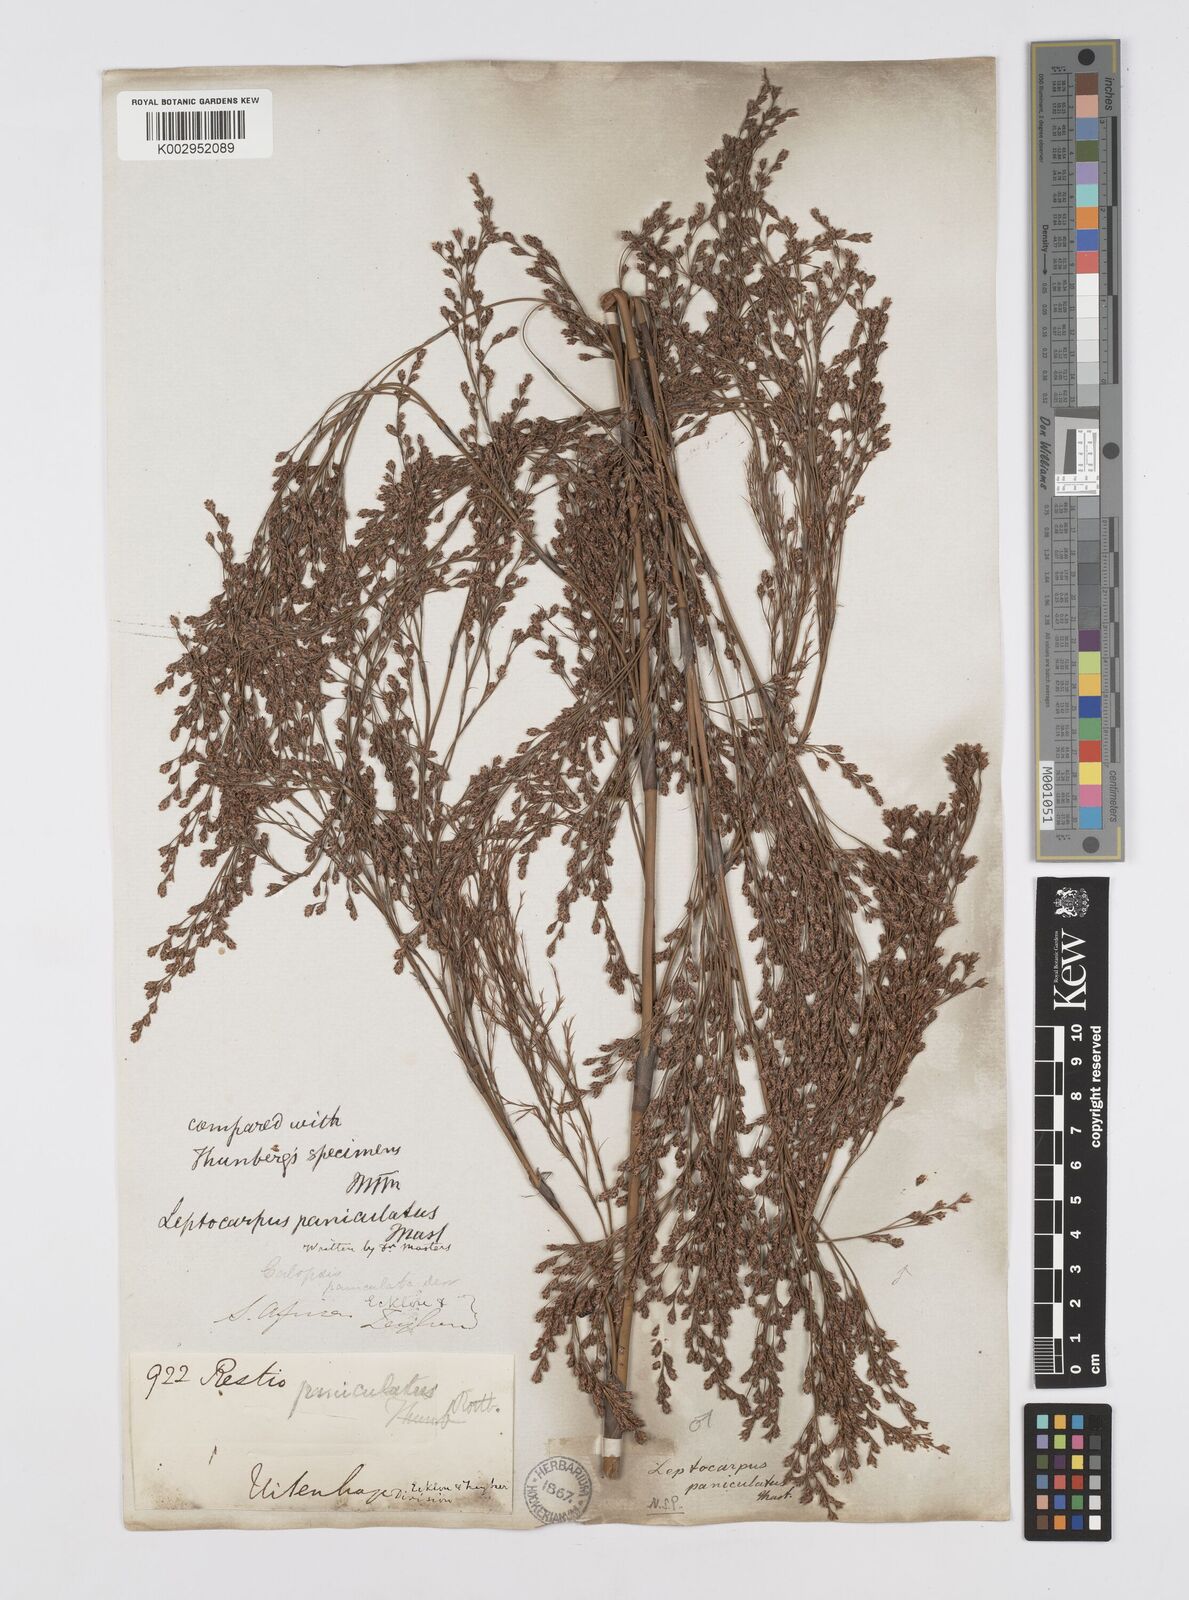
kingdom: Plantae
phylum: Tracheophyta
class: Liliopsida
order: Poales
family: Restionaceae
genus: Restio
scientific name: Restio paniculatus
